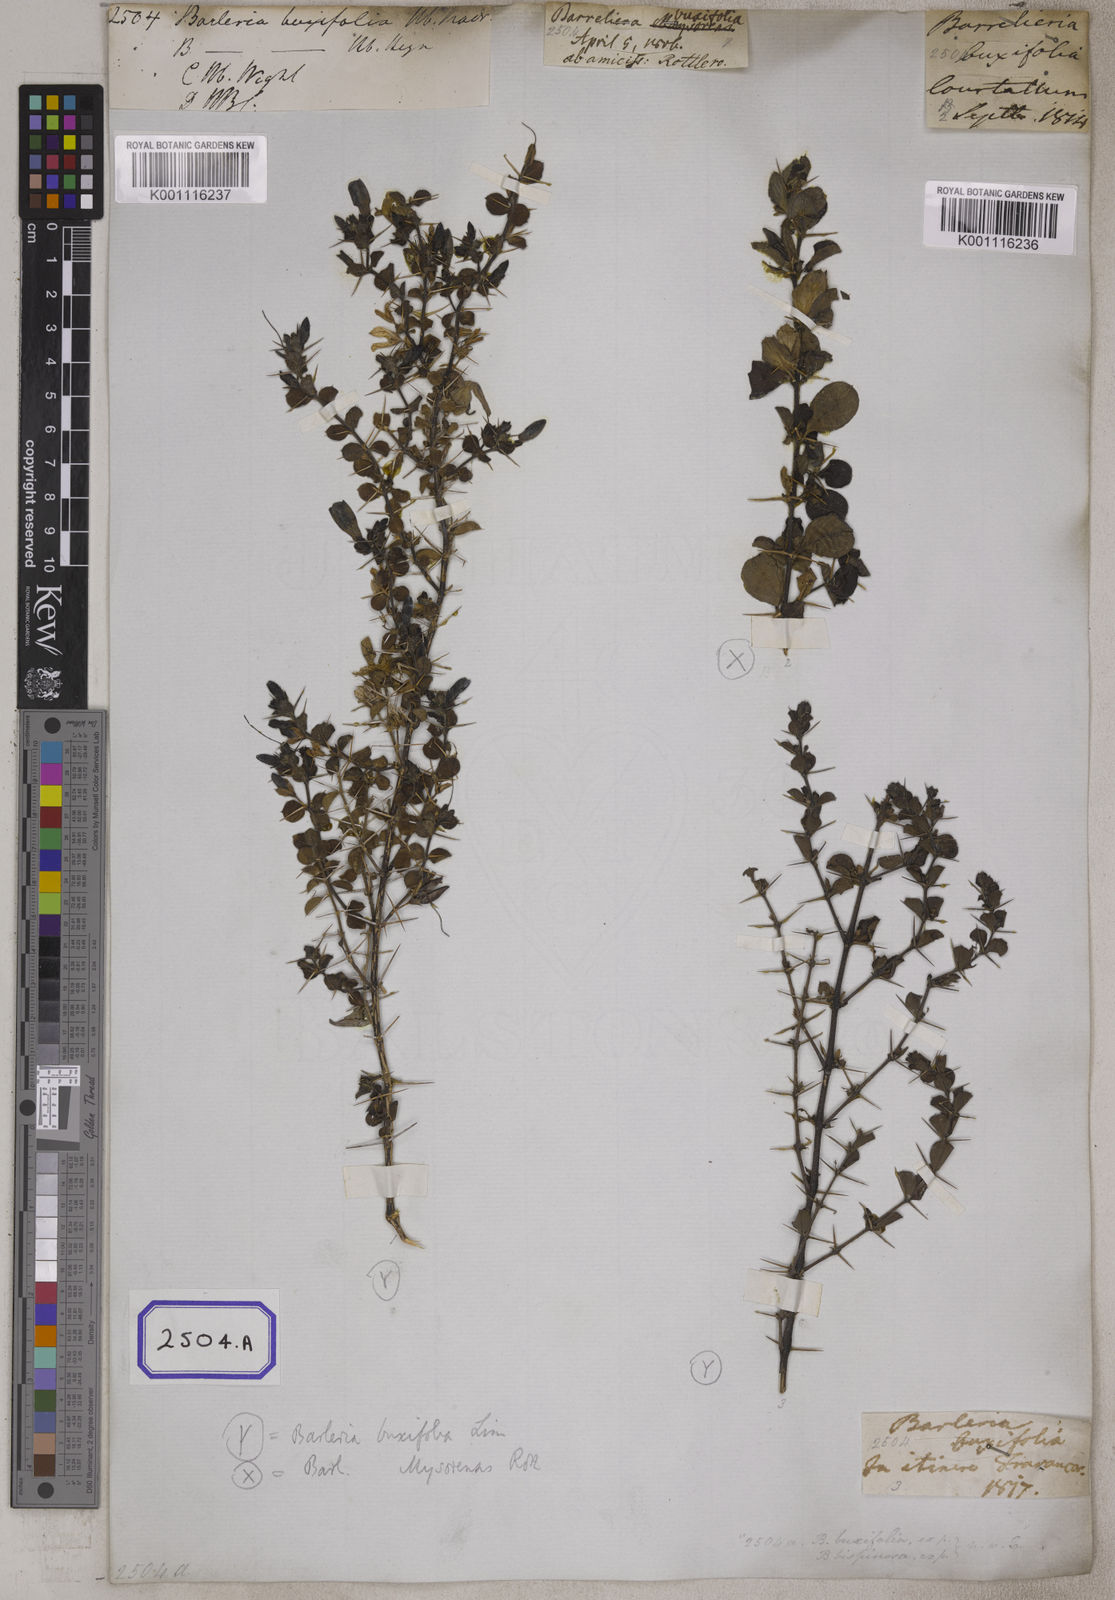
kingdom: Plantae
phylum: Tracheophyta
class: Magnoliopsida
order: Lamiales
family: Acanthaceae
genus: Barleria
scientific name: Barleria
